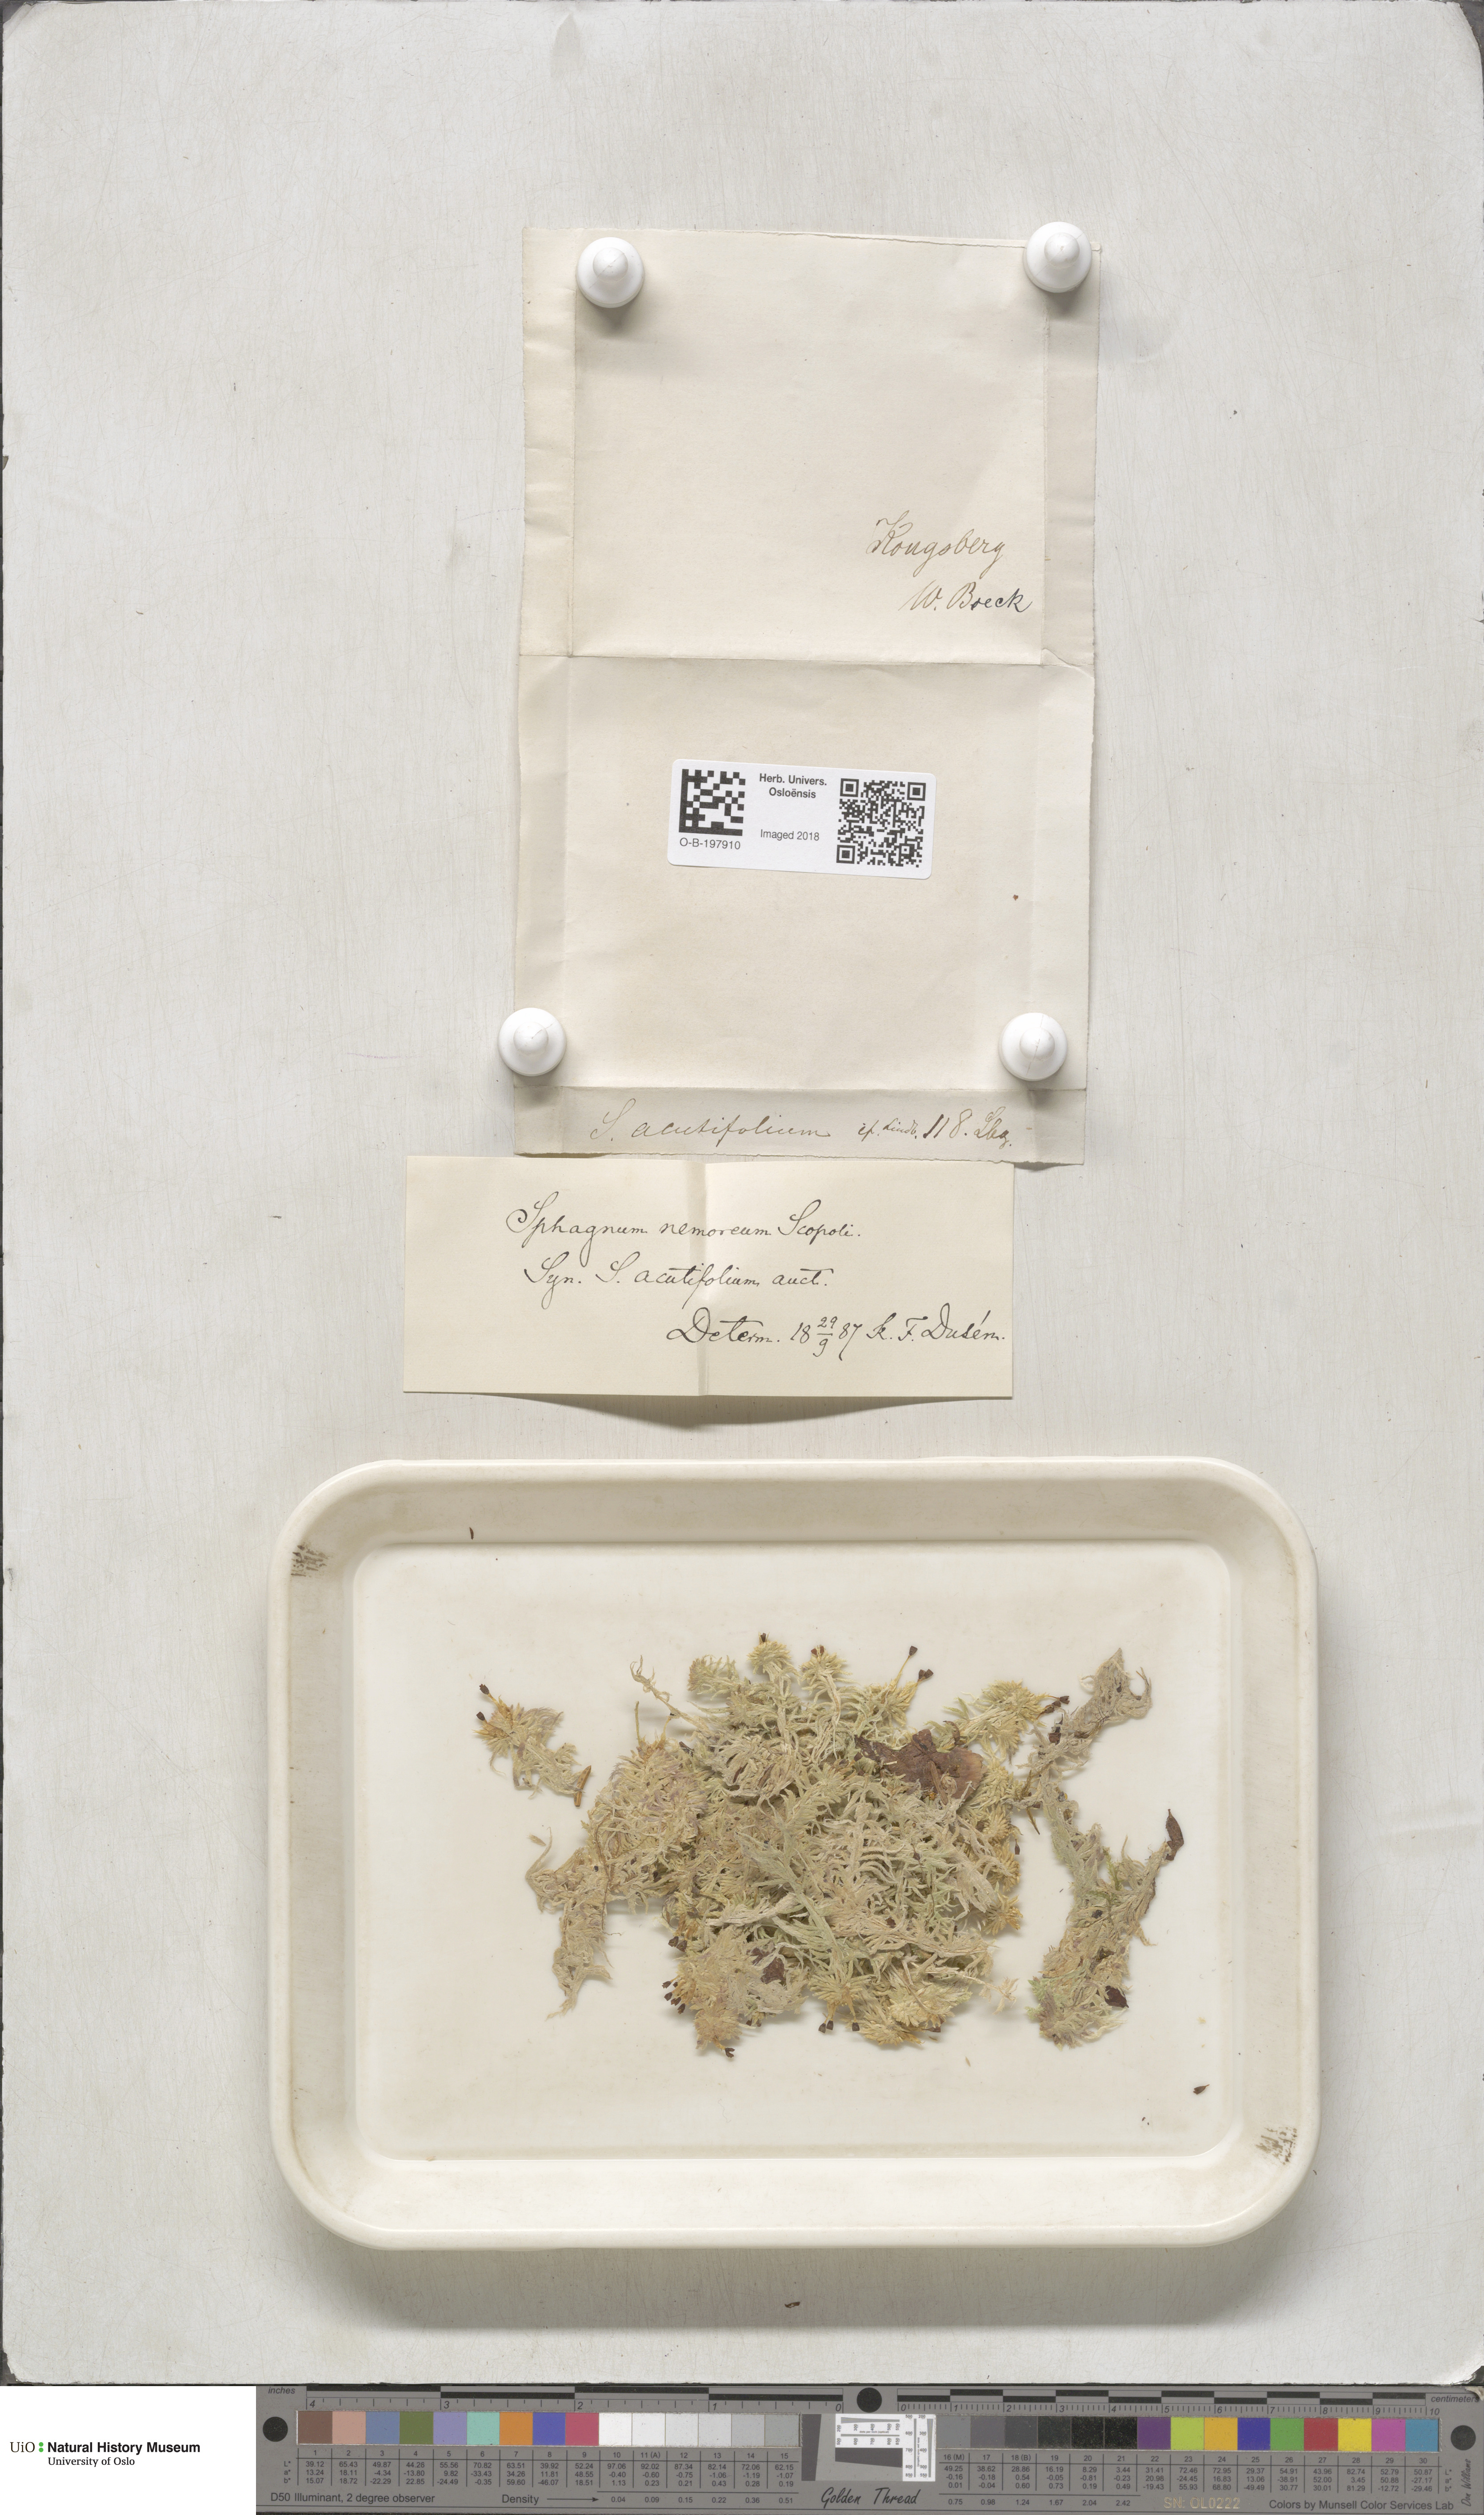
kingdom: Plantae
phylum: Bryophyta
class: Sphagnopsida
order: Sphagnales
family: Sphagnaceae
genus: Sphagnum
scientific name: Sphagnum capillifolium
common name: Small red peat moss
